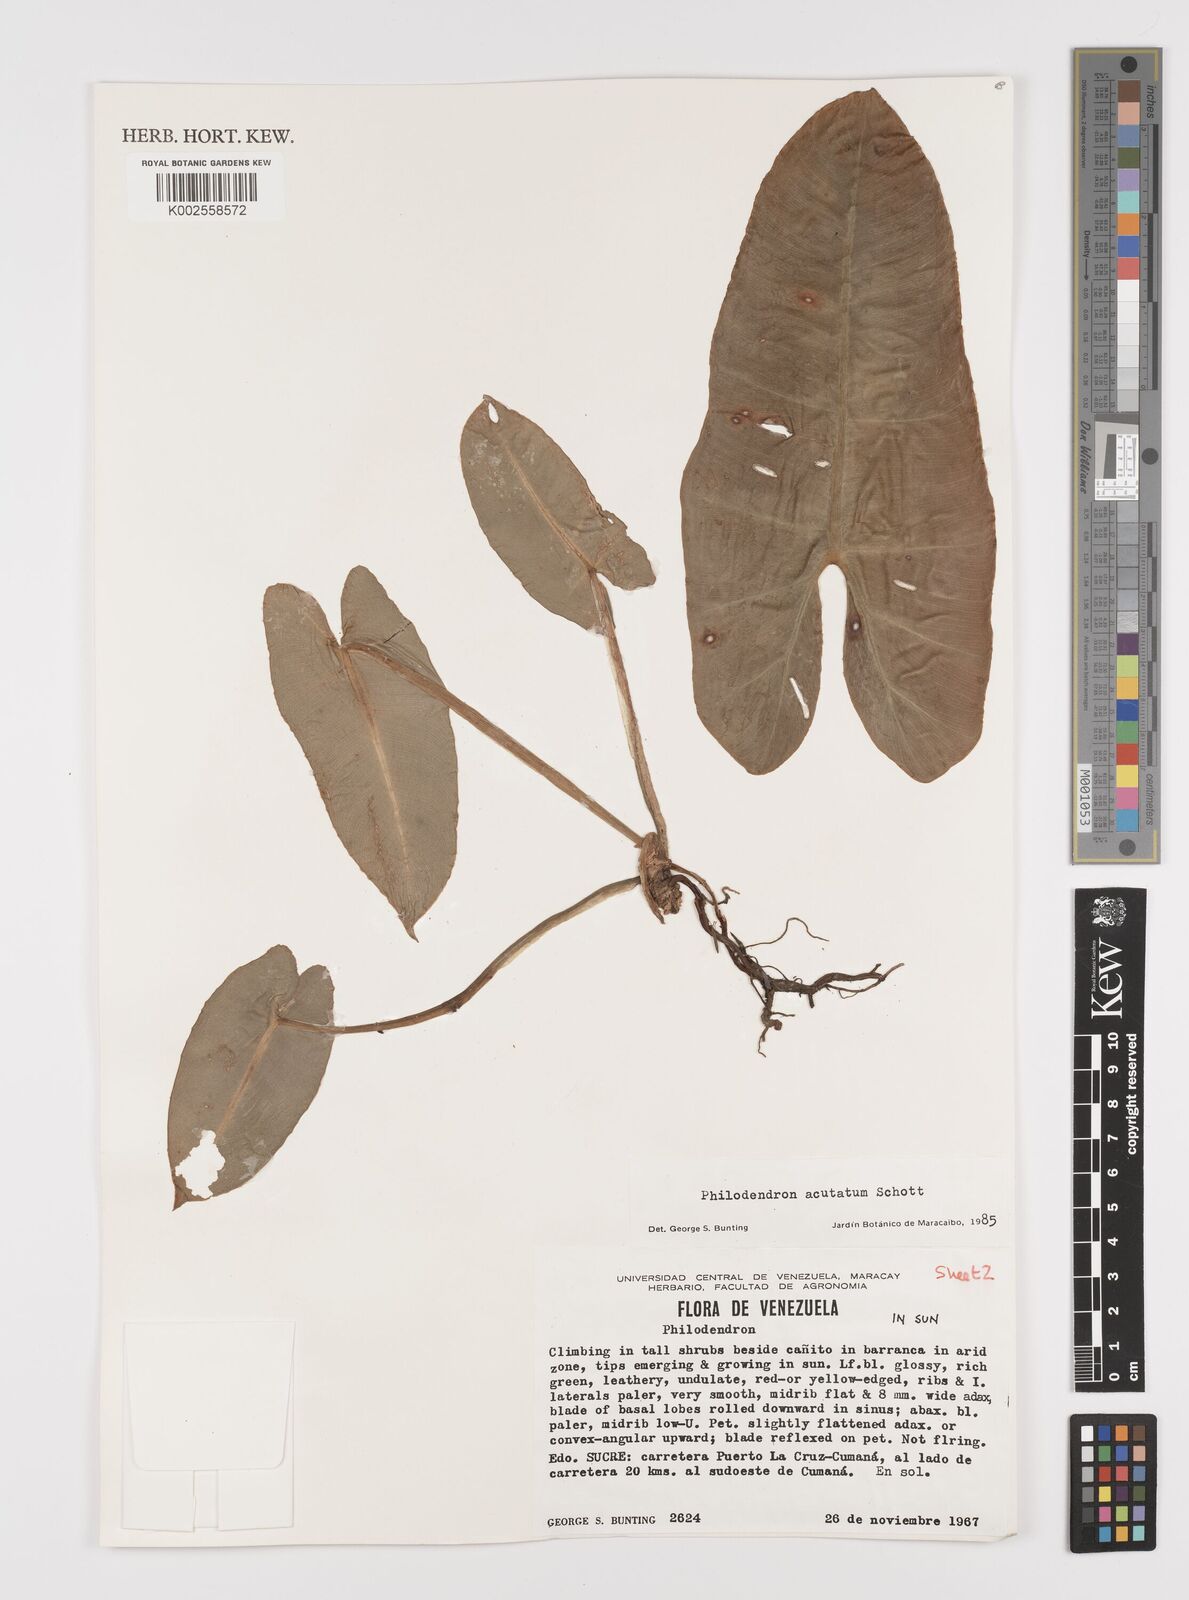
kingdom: Plantae
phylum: Tracheophyta
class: Liliopsida
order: Alismatales
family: Araceae
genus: Philodendron
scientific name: Philodendron quinquenervium
